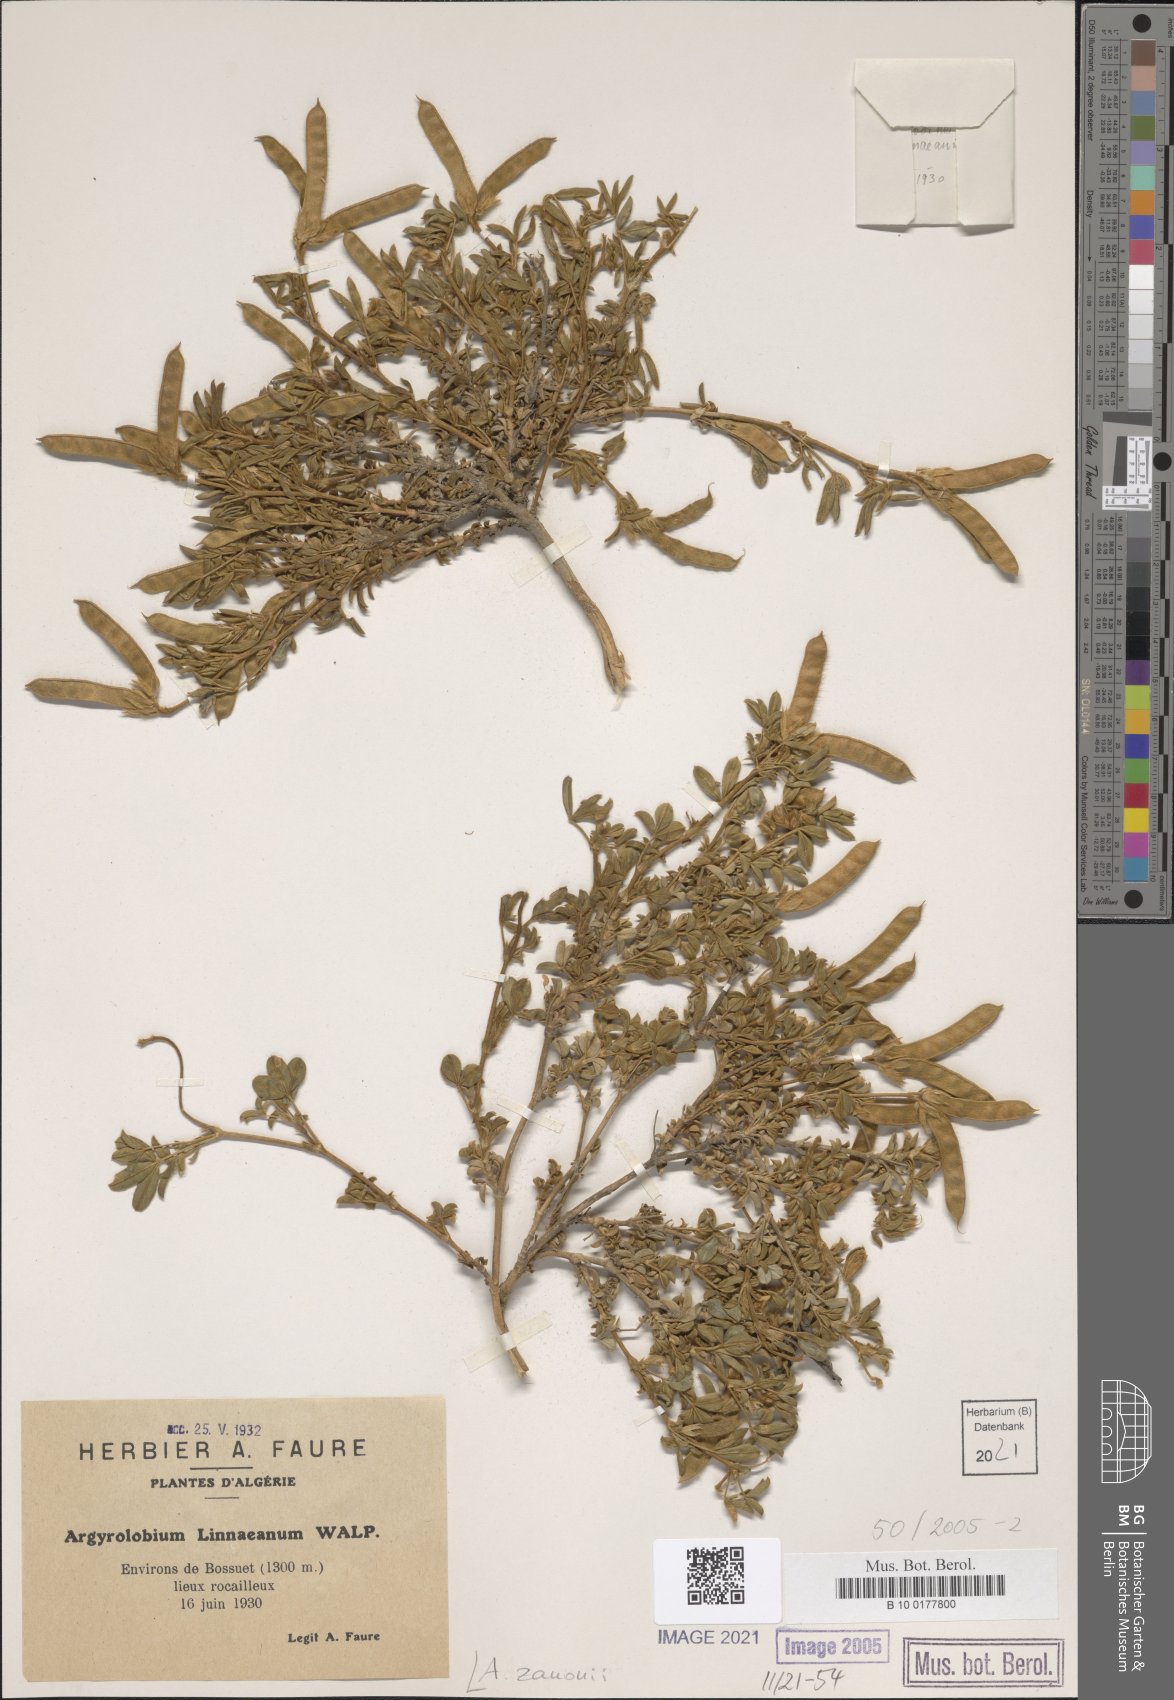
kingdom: Plantae
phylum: Tracheophyta
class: Magnoliopsida
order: Fabales
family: Fabaceae
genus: Argyrolobium
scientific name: Argyrolobium zanonii
